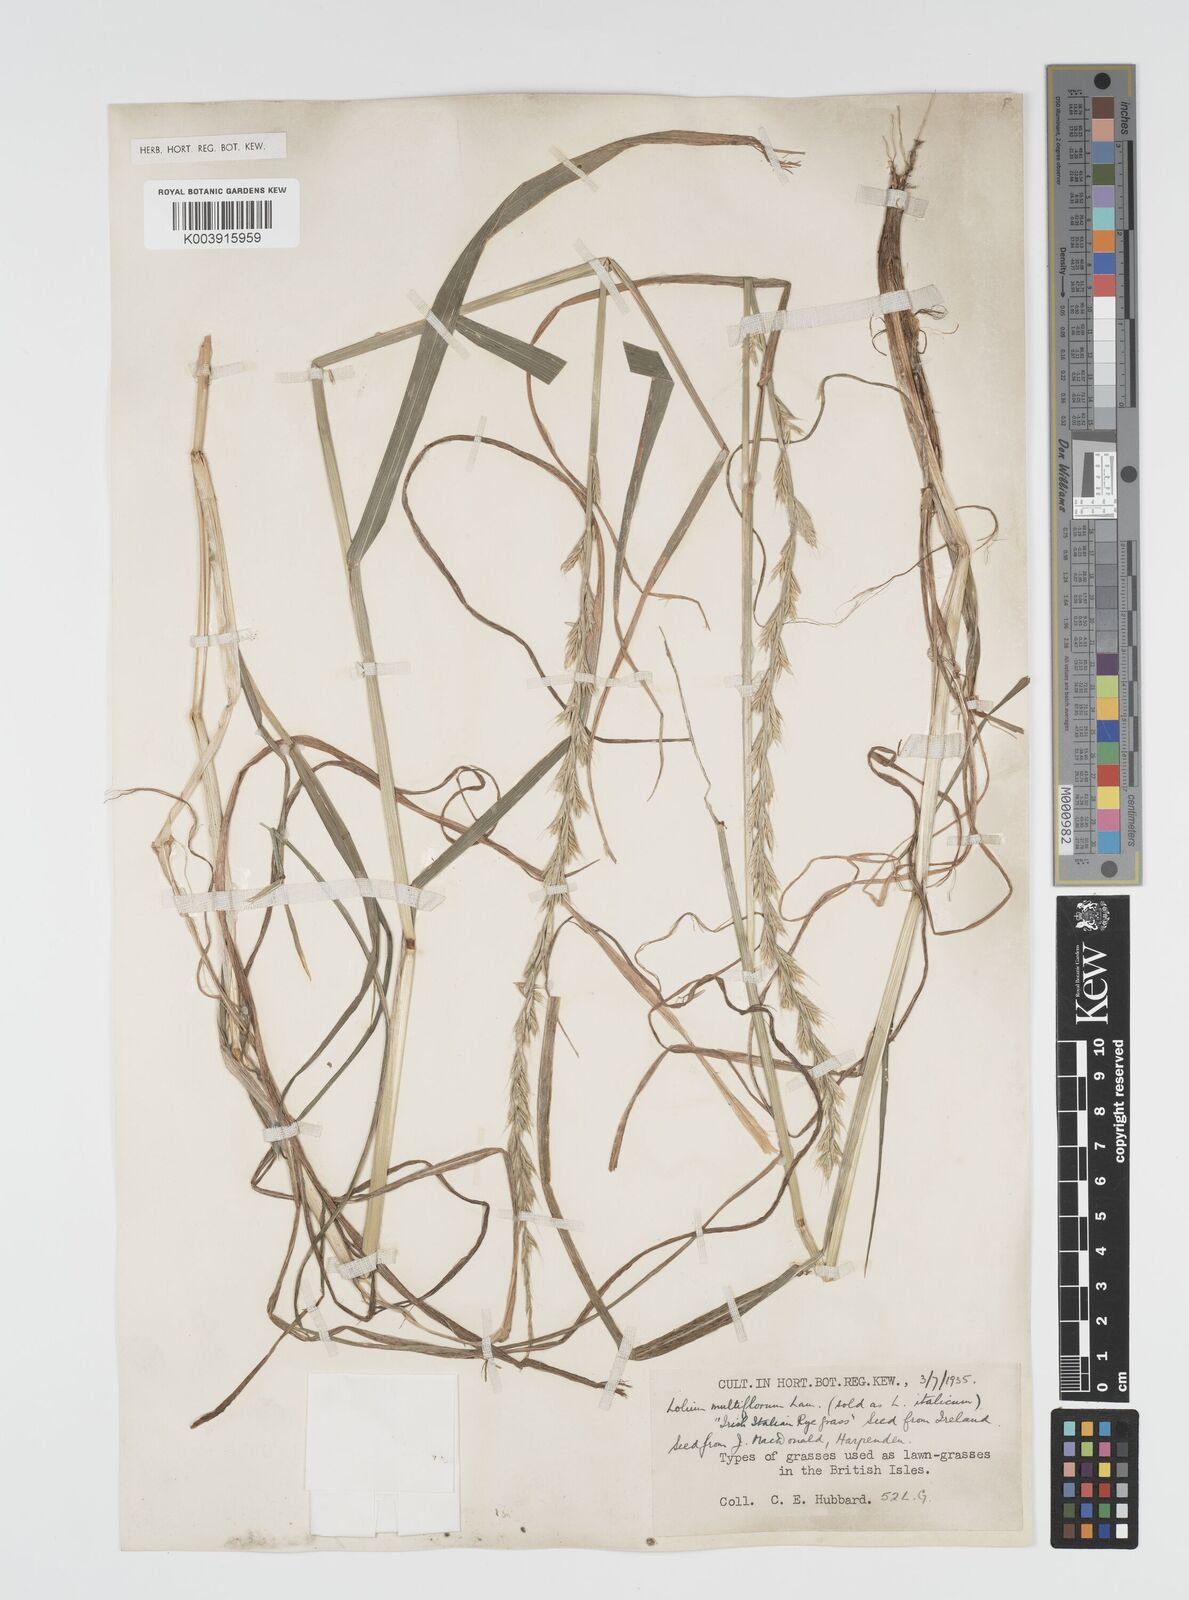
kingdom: Plantae
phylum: Tracheophyta
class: Liliopsida
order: Poales
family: Poaceae
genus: Lolium
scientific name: Lolium multiflorum
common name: Annual ryegrass
